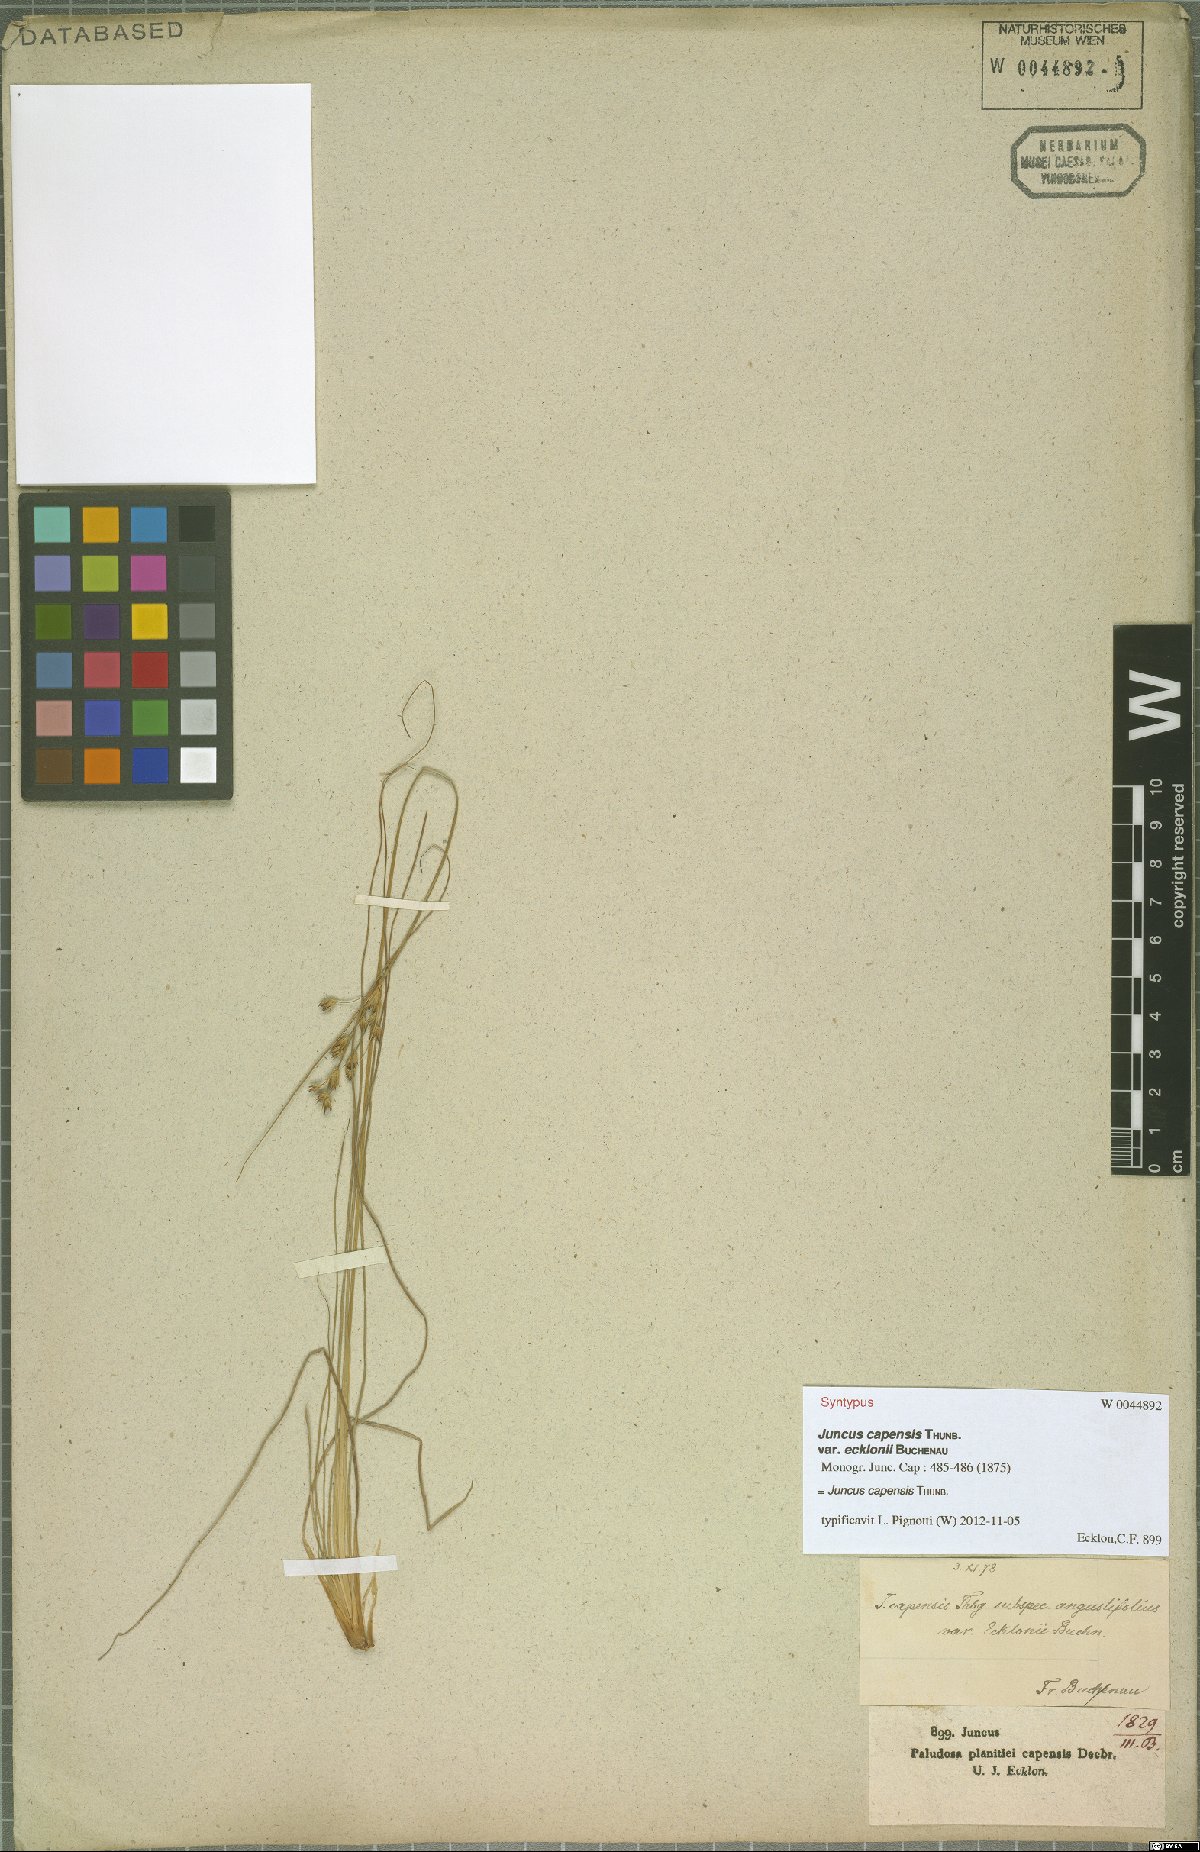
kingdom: Plantae
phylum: Tracheophyta
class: Liliopsida
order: Poales
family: Juncaceae
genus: Juncus
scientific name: Juncus capensis
